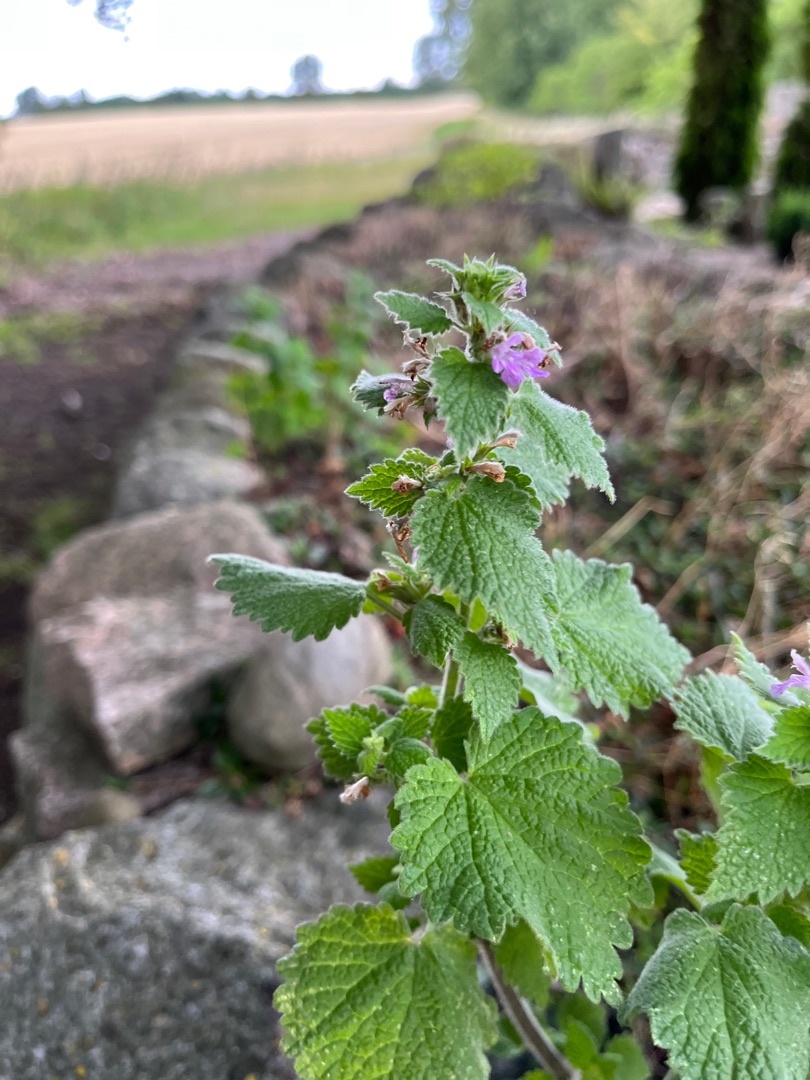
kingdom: Plantae
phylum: Tracheophyta
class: Magnoliopsida
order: Lamiales
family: Lamiaceae
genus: Ballota
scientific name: Ballota nigra
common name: Tandbæger
